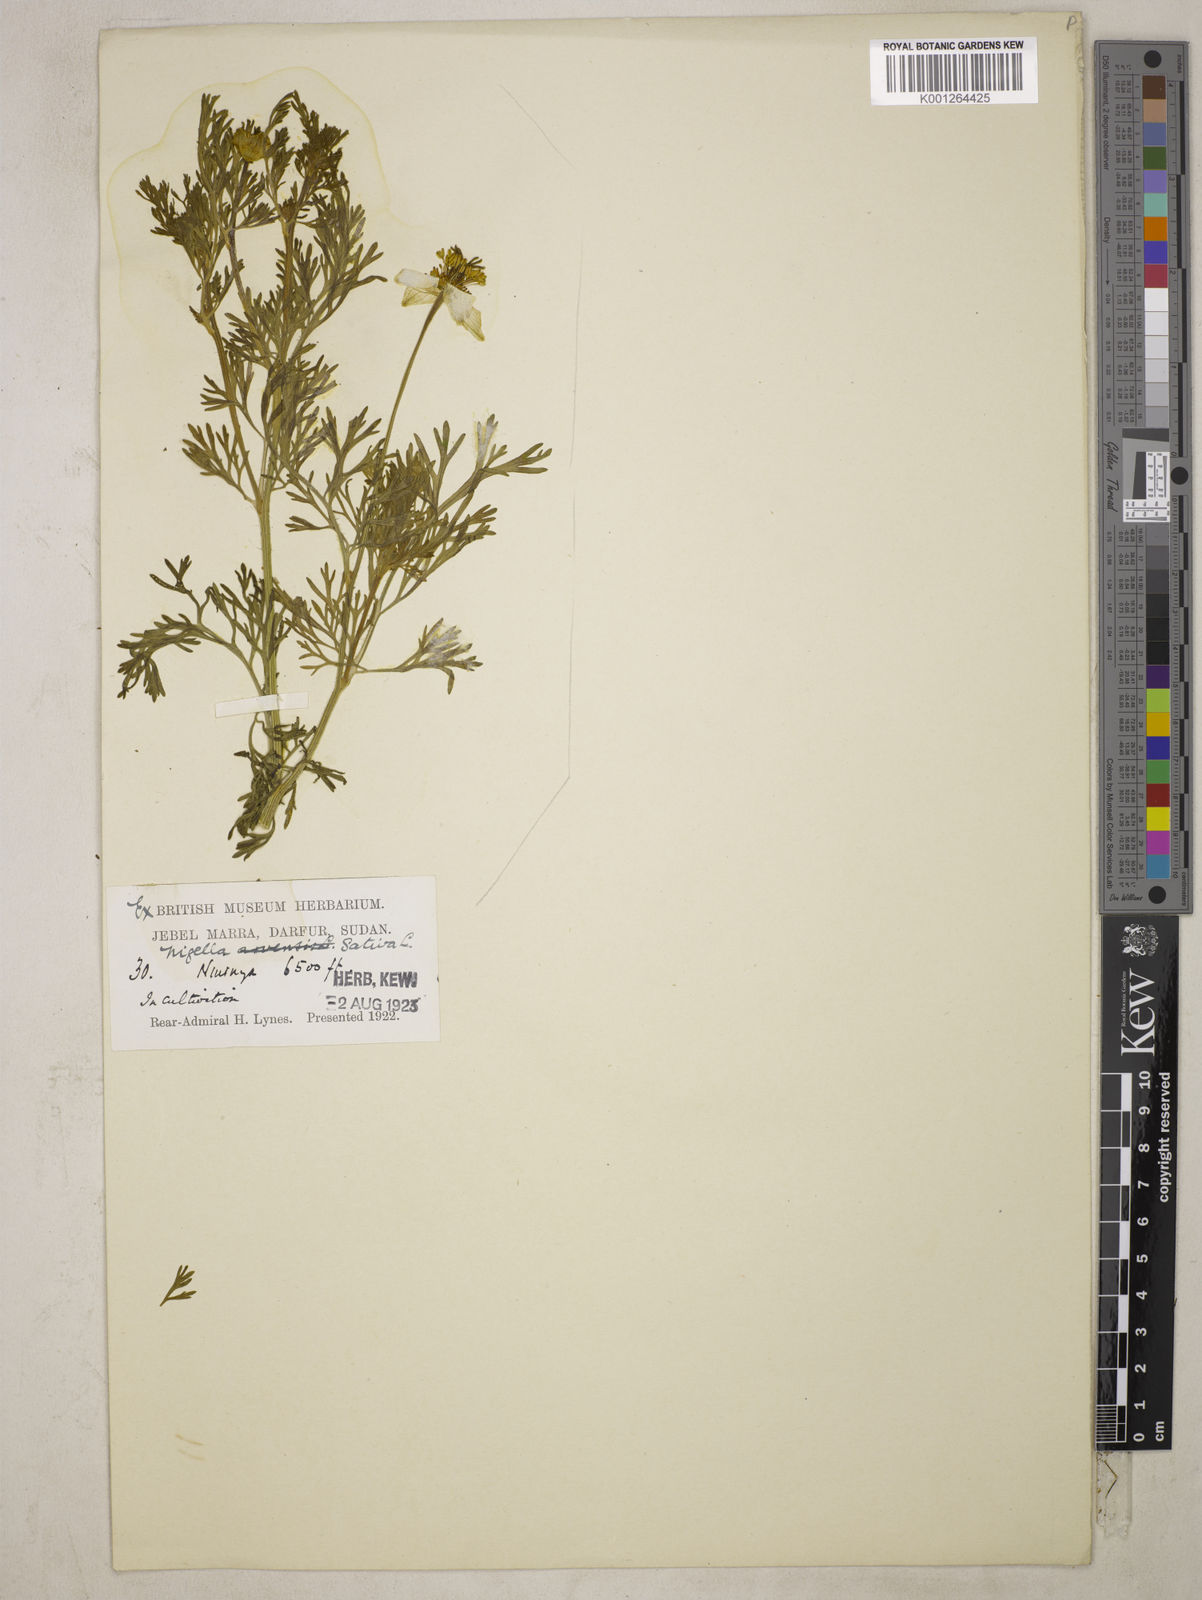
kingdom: Plantae
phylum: Tracheophyta
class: Magnoliopsida
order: Ranunculales
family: Ranunculaceae
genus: Nigella
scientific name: Nigella sativa
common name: Black-cumin
